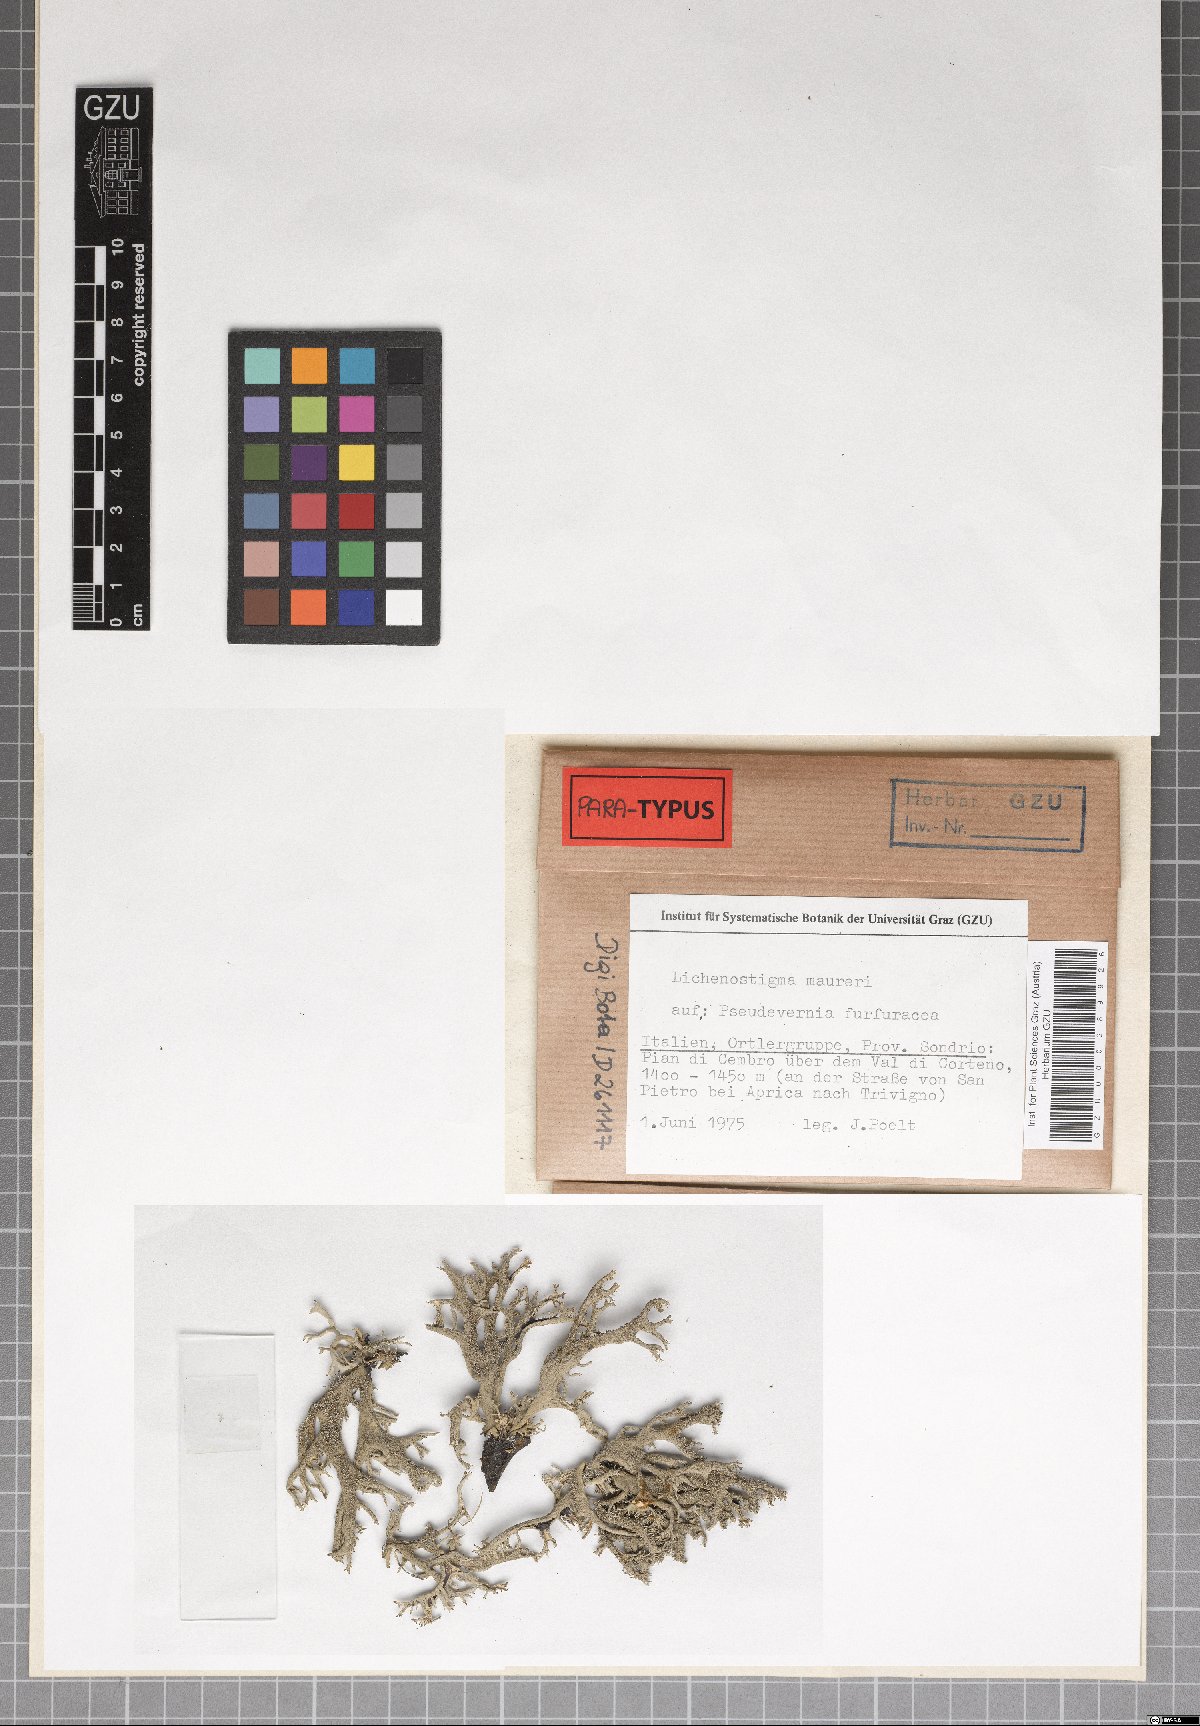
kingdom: Fungi
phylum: Ascomycota
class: Arthoniomycetes
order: Lichenostigmatales
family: Phaeococcomycetaceae
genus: Lichenostigma
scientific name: Lichenostigma maureri
